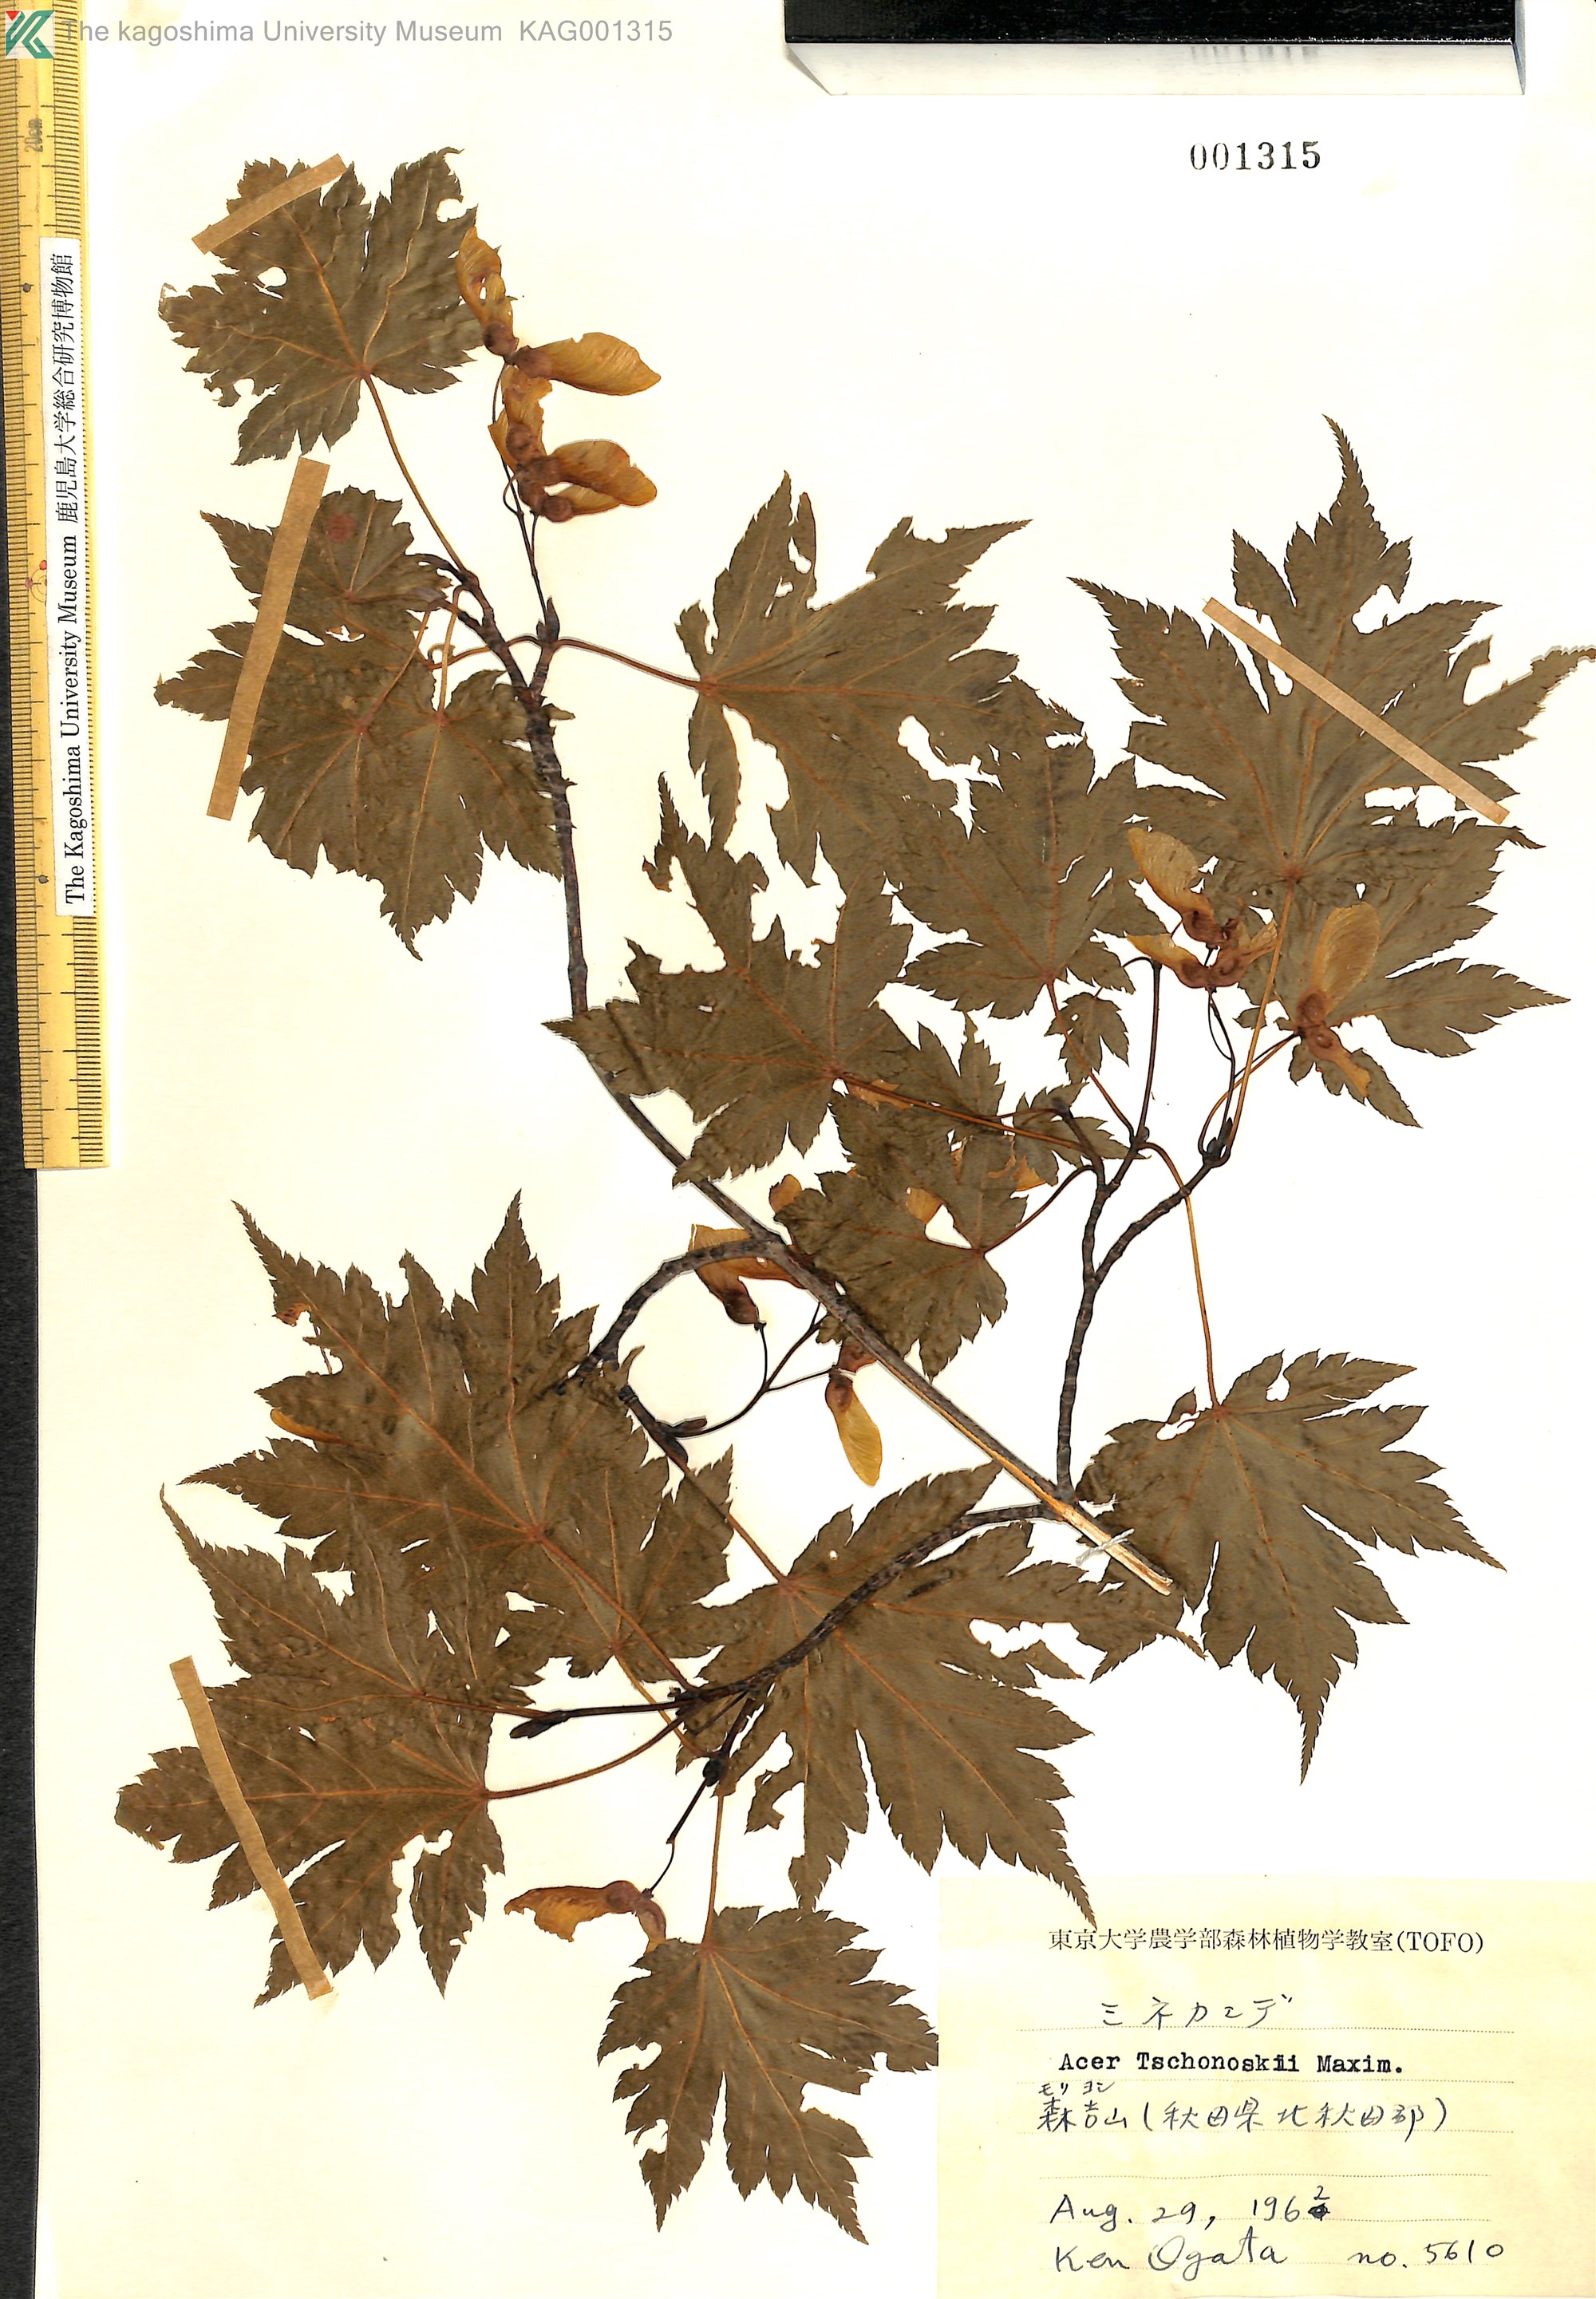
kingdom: Plantae
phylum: Tracheophyta
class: Magnoliopsida
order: Sapindales
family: Sapindaceae
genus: Acer
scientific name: Acer tschonoskii
